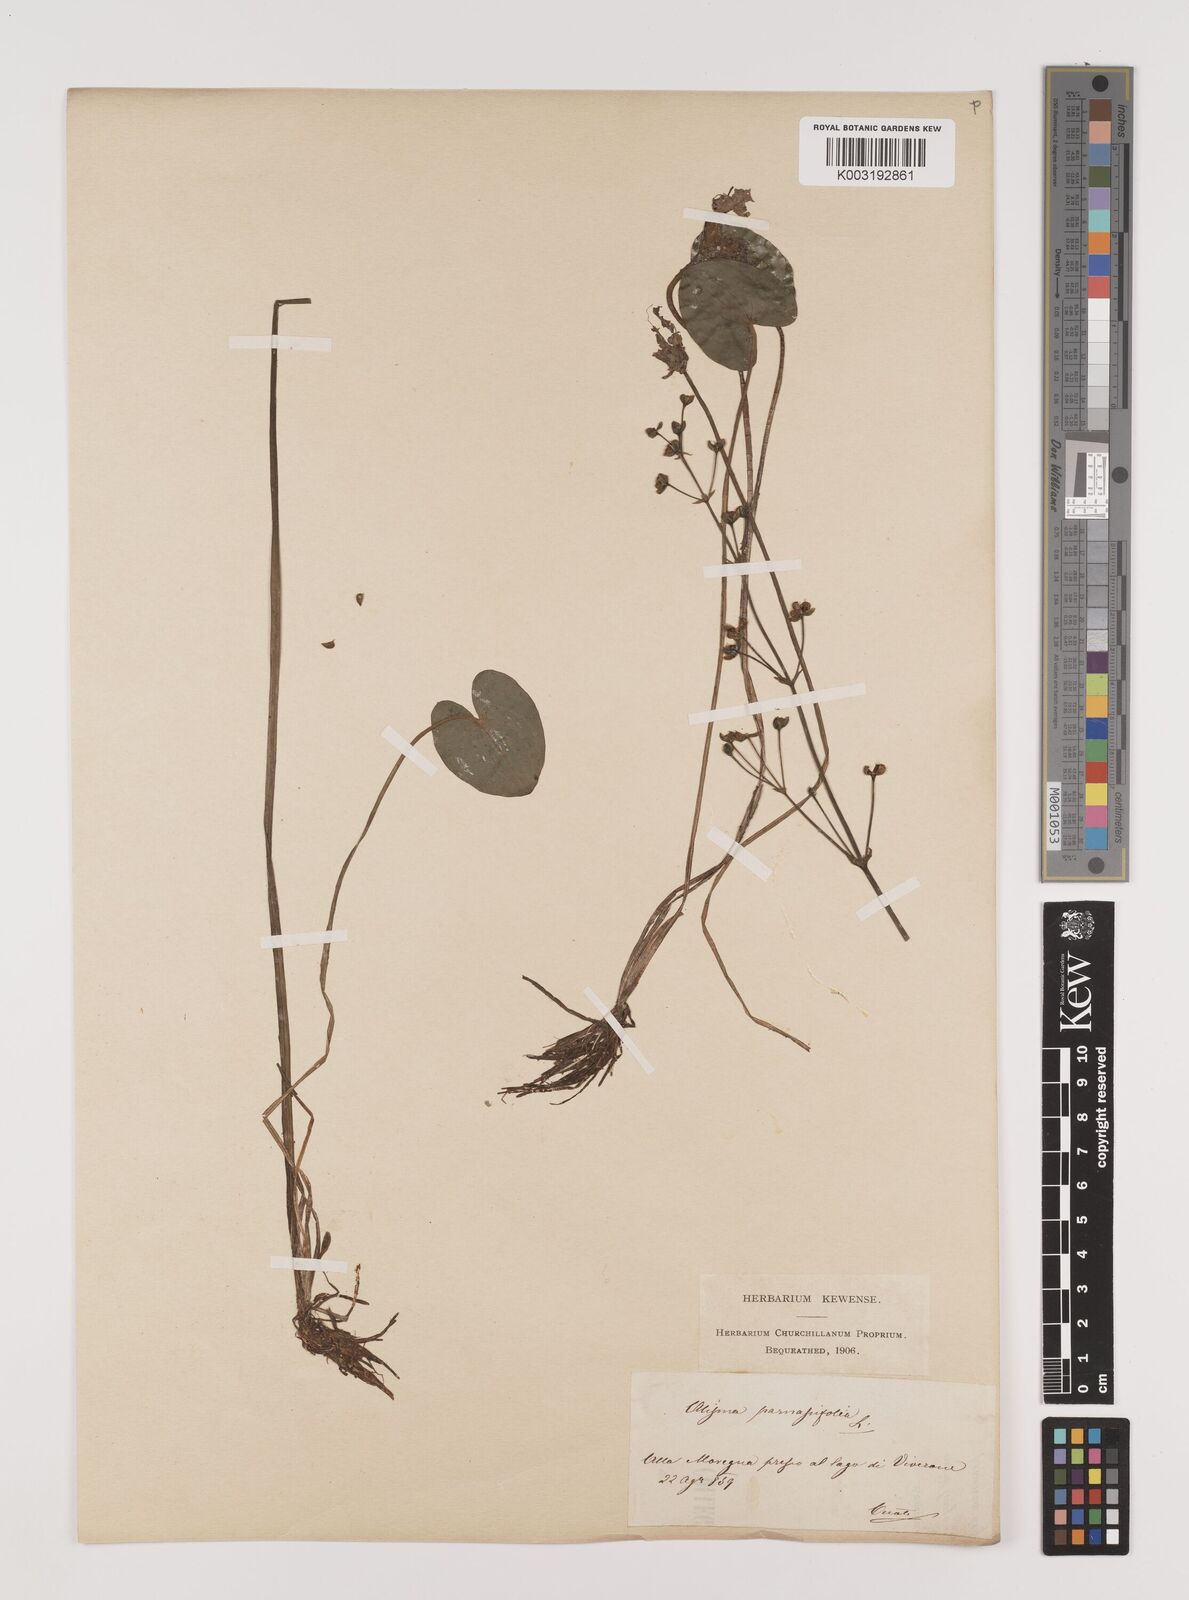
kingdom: Plantae
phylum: Tracheophyta
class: Liliopsida
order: Alismatales
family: Alismataceae
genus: Caldesia
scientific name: Caldesia parnassifolia
